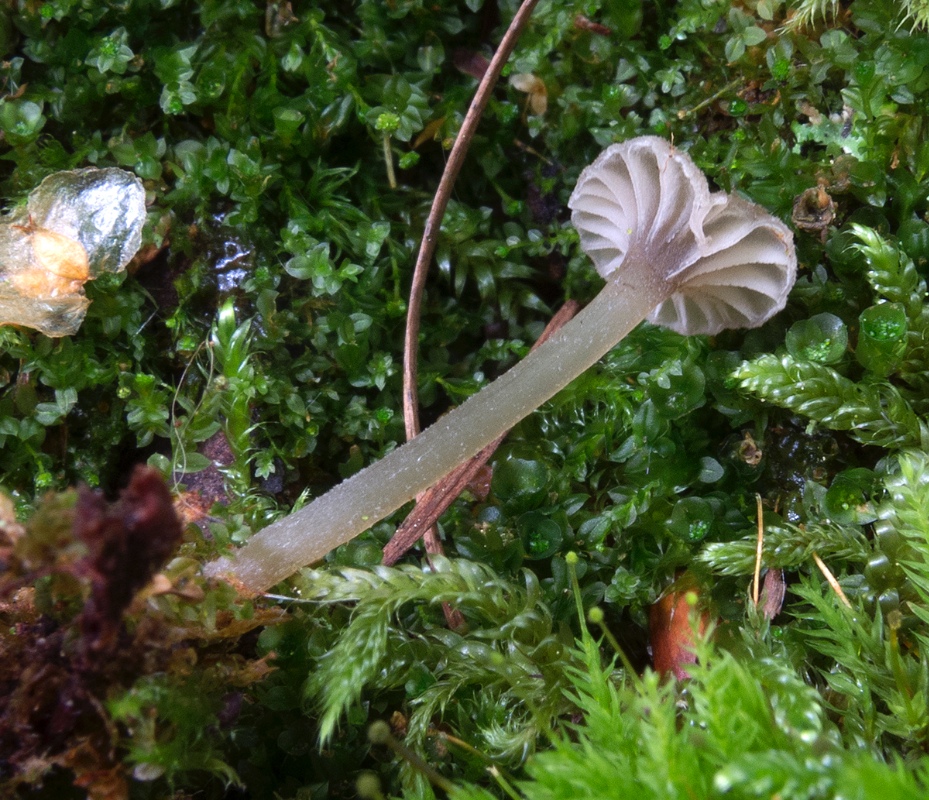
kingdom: Fungi
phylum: Basidiomycota
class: Agaricomycetes
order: Agaricales
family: Entolomataceae
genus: Entoloma
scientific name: Entoloma rhodocylix
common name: fjernbladet rødblad
